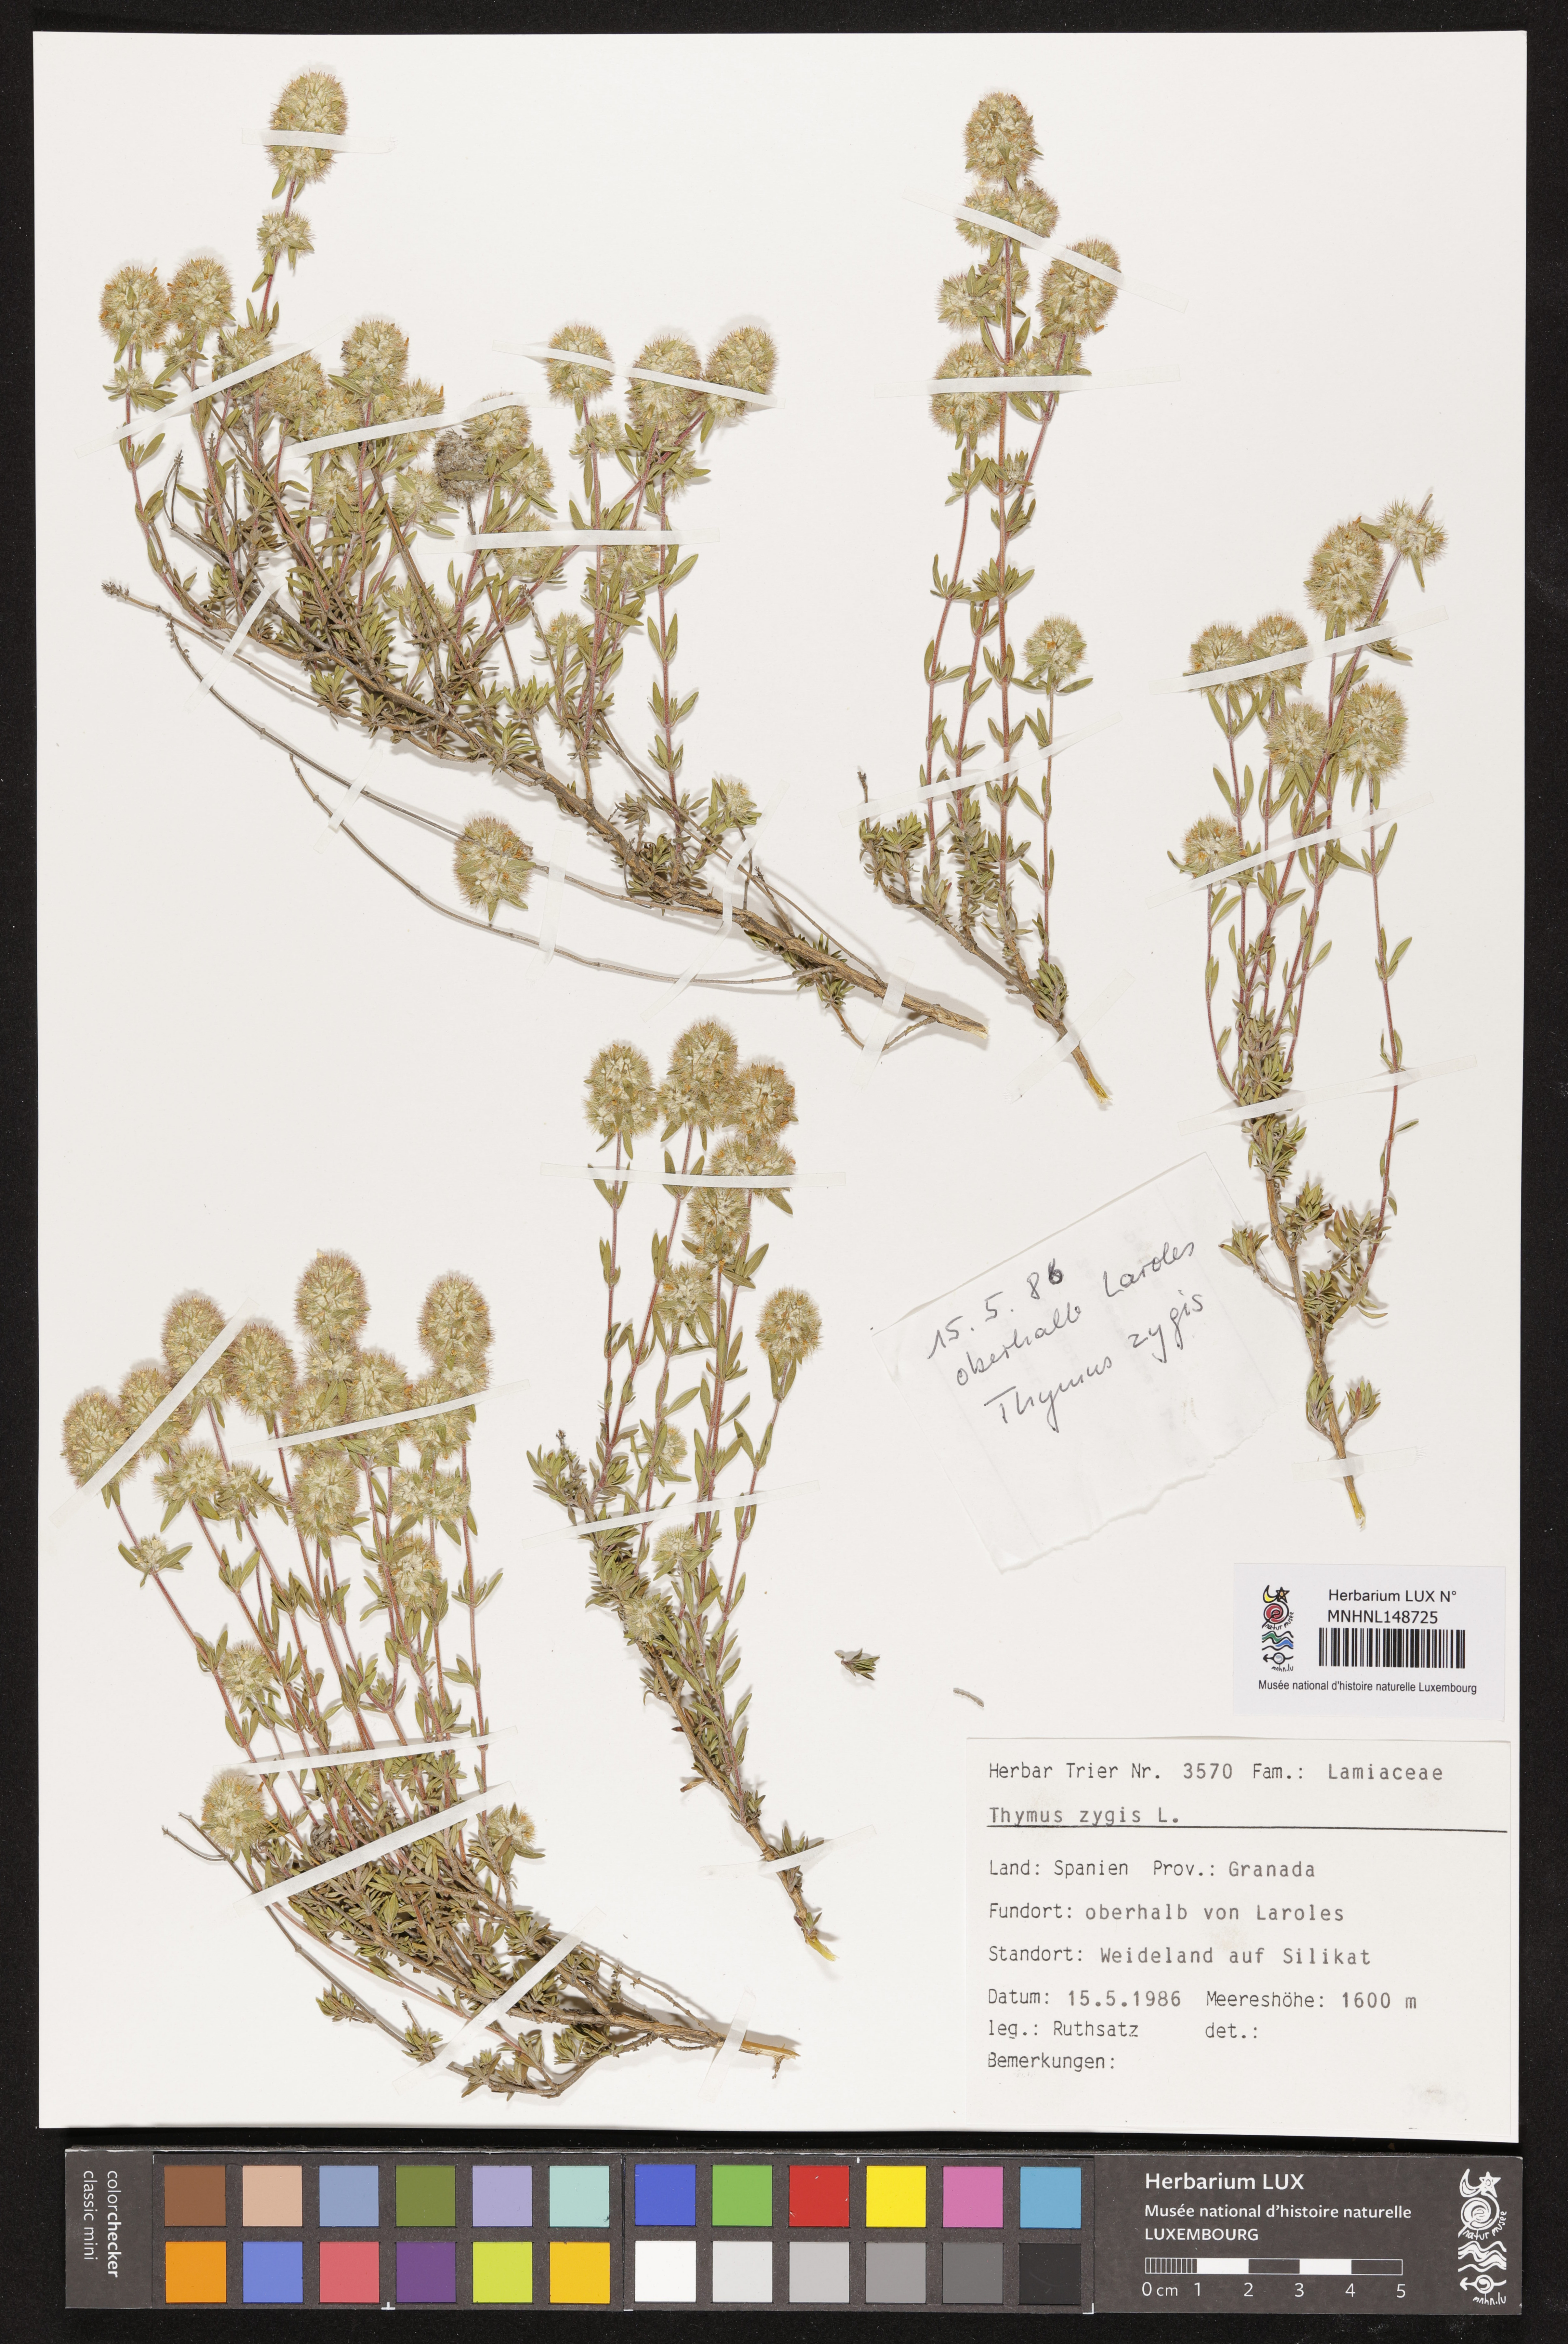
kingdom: Plantae
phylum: Tracheophyta
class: Magnoliopsida
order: Lamiales
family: Lamiaceae
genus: Thymus
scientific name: Thymus zygis
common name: White thyme
